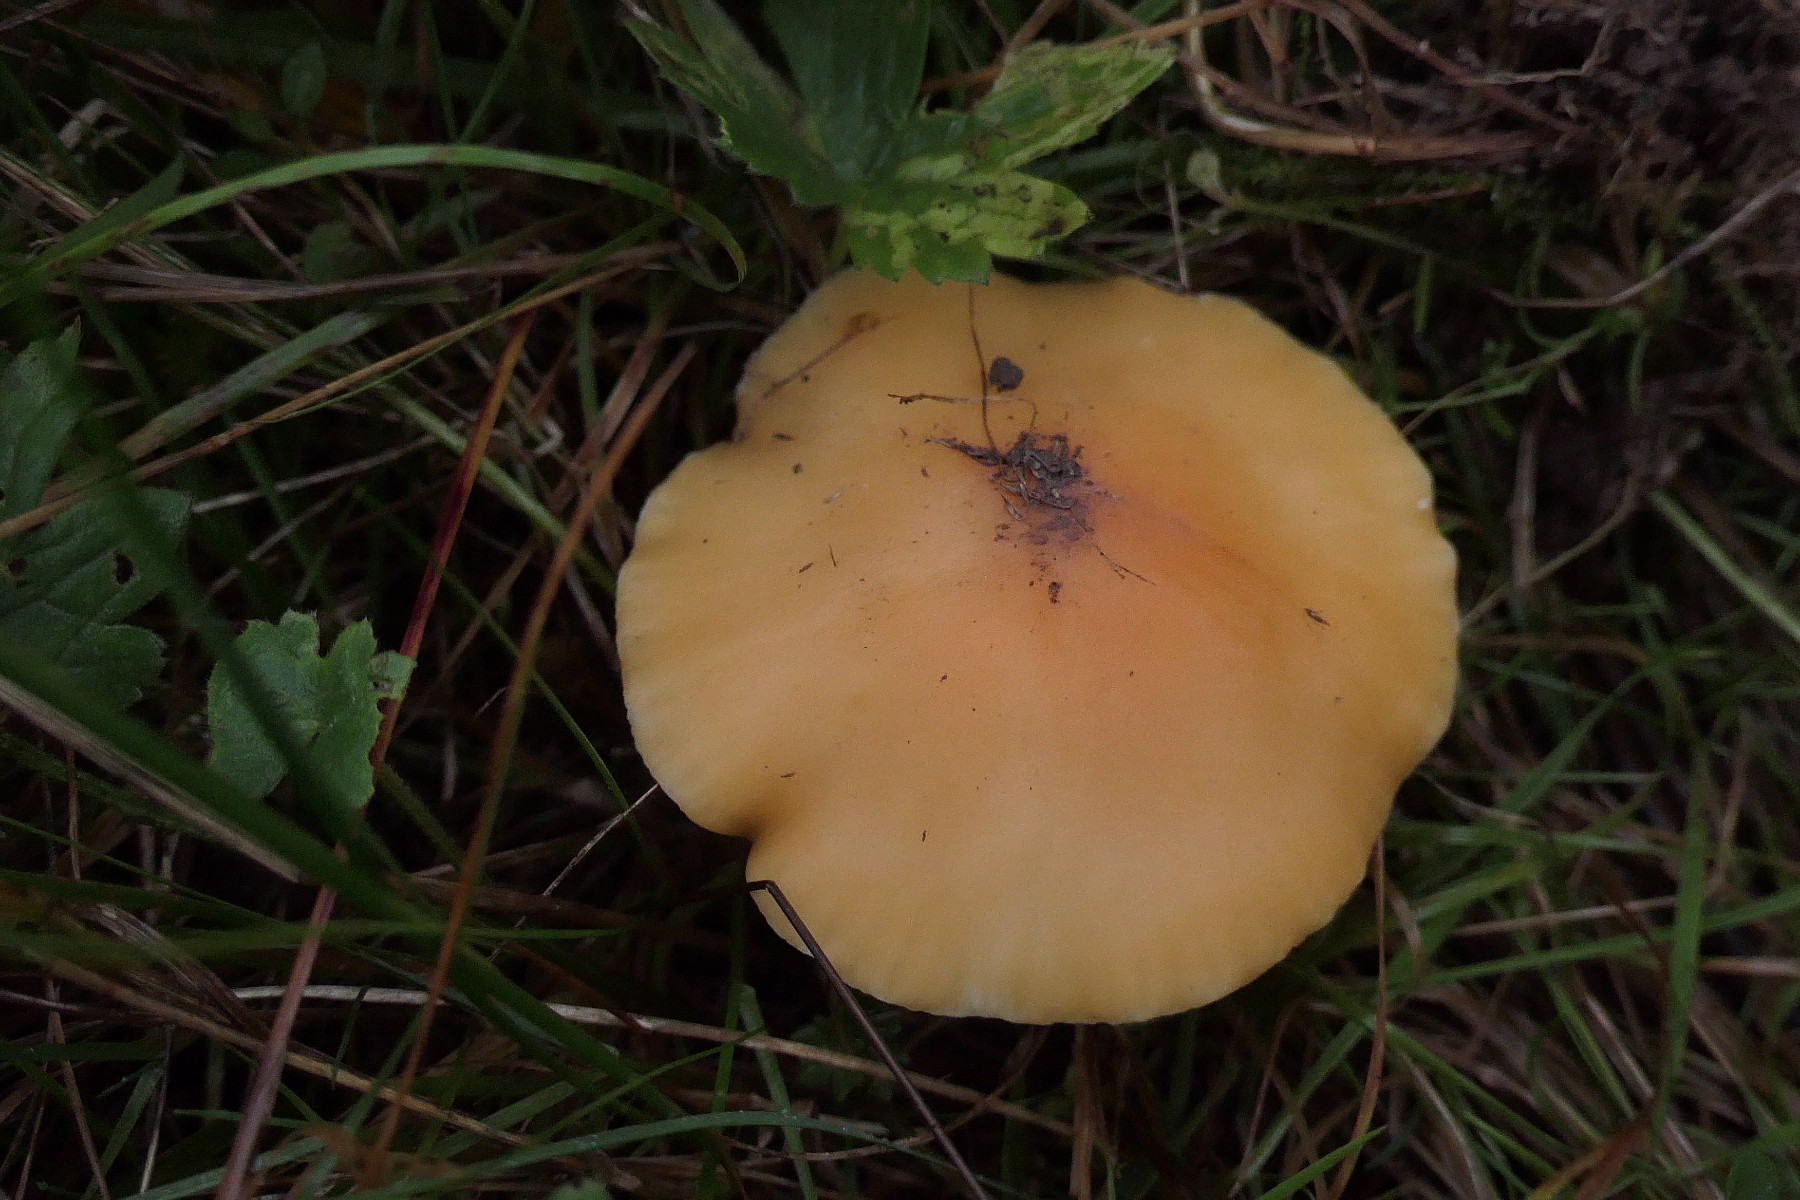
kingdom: Fungi
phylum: Basidiomycota
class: Agaricomycetes
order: Agaricales
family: Hygrophoraceae
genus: Cuphophyllus
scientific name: Cuphophyllus pratensis
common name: eng-vokshat
